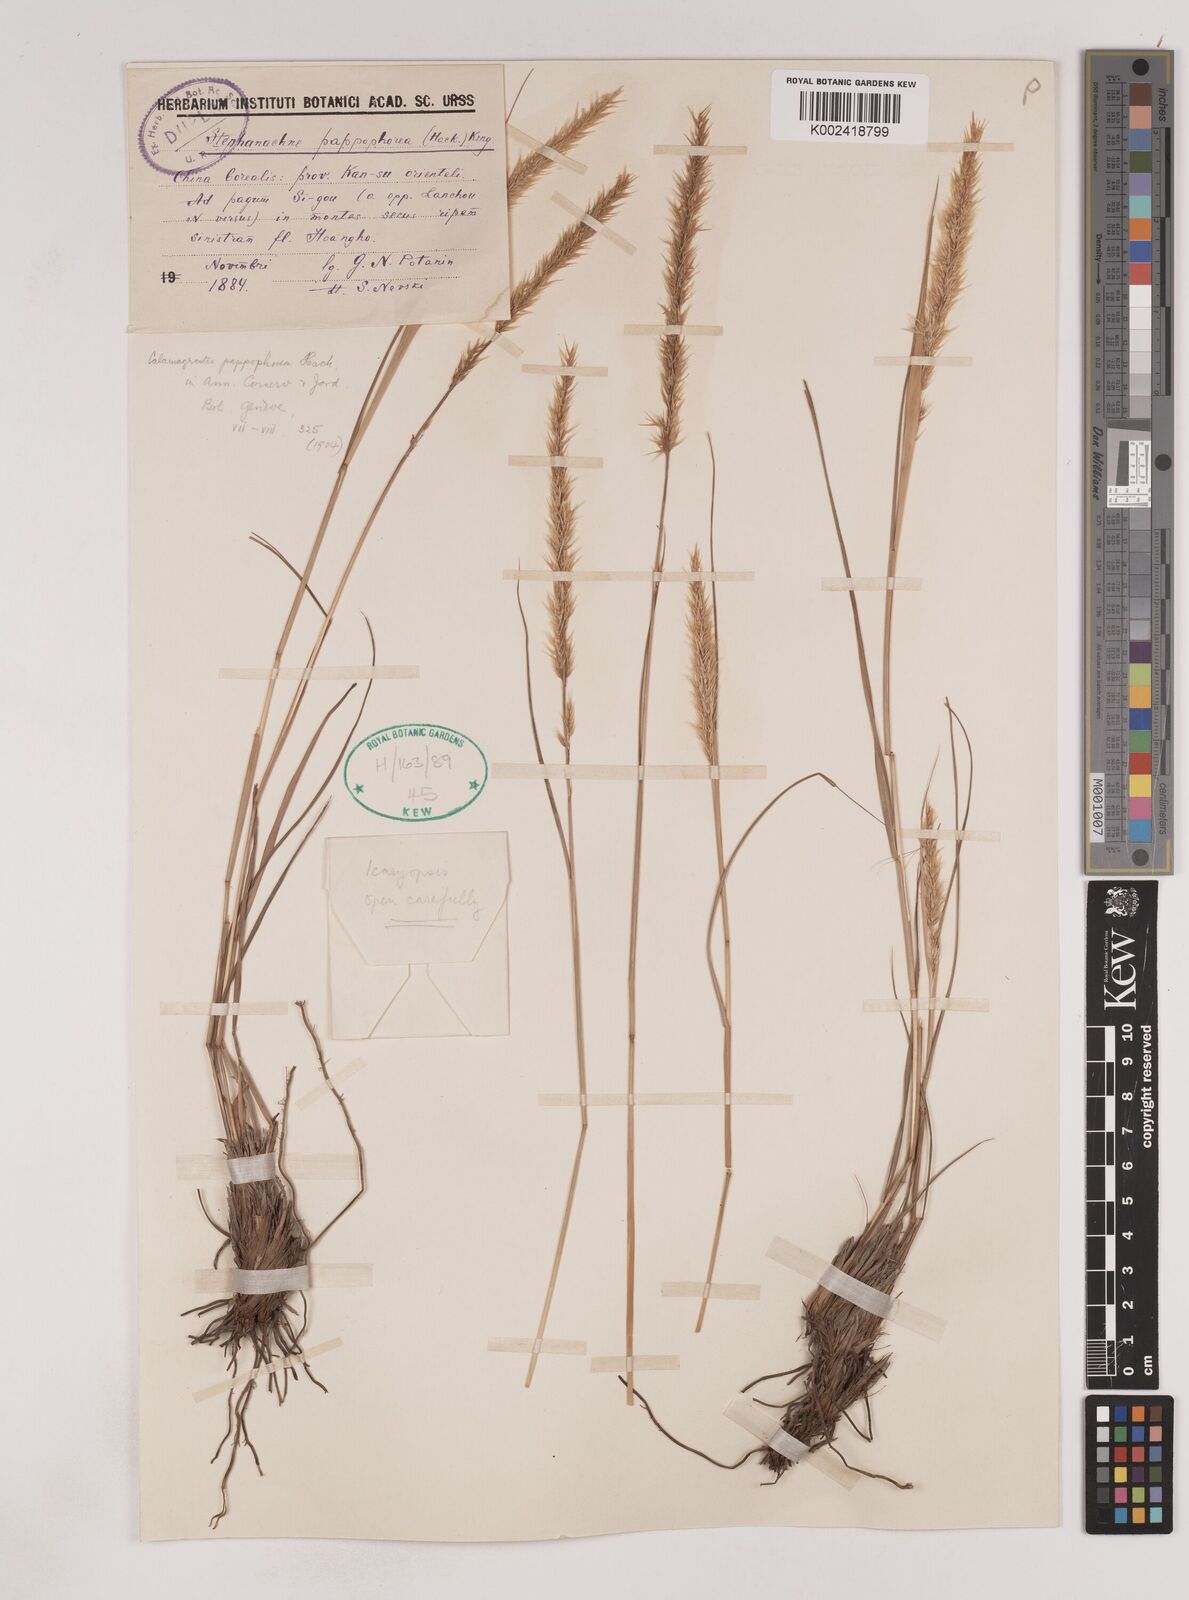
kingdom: Plantae
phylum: Tracheophyta
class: Liliopsida
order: Poales
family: Poaceae
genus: Pappagrostis
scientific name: Pappagrostis pappophorea
